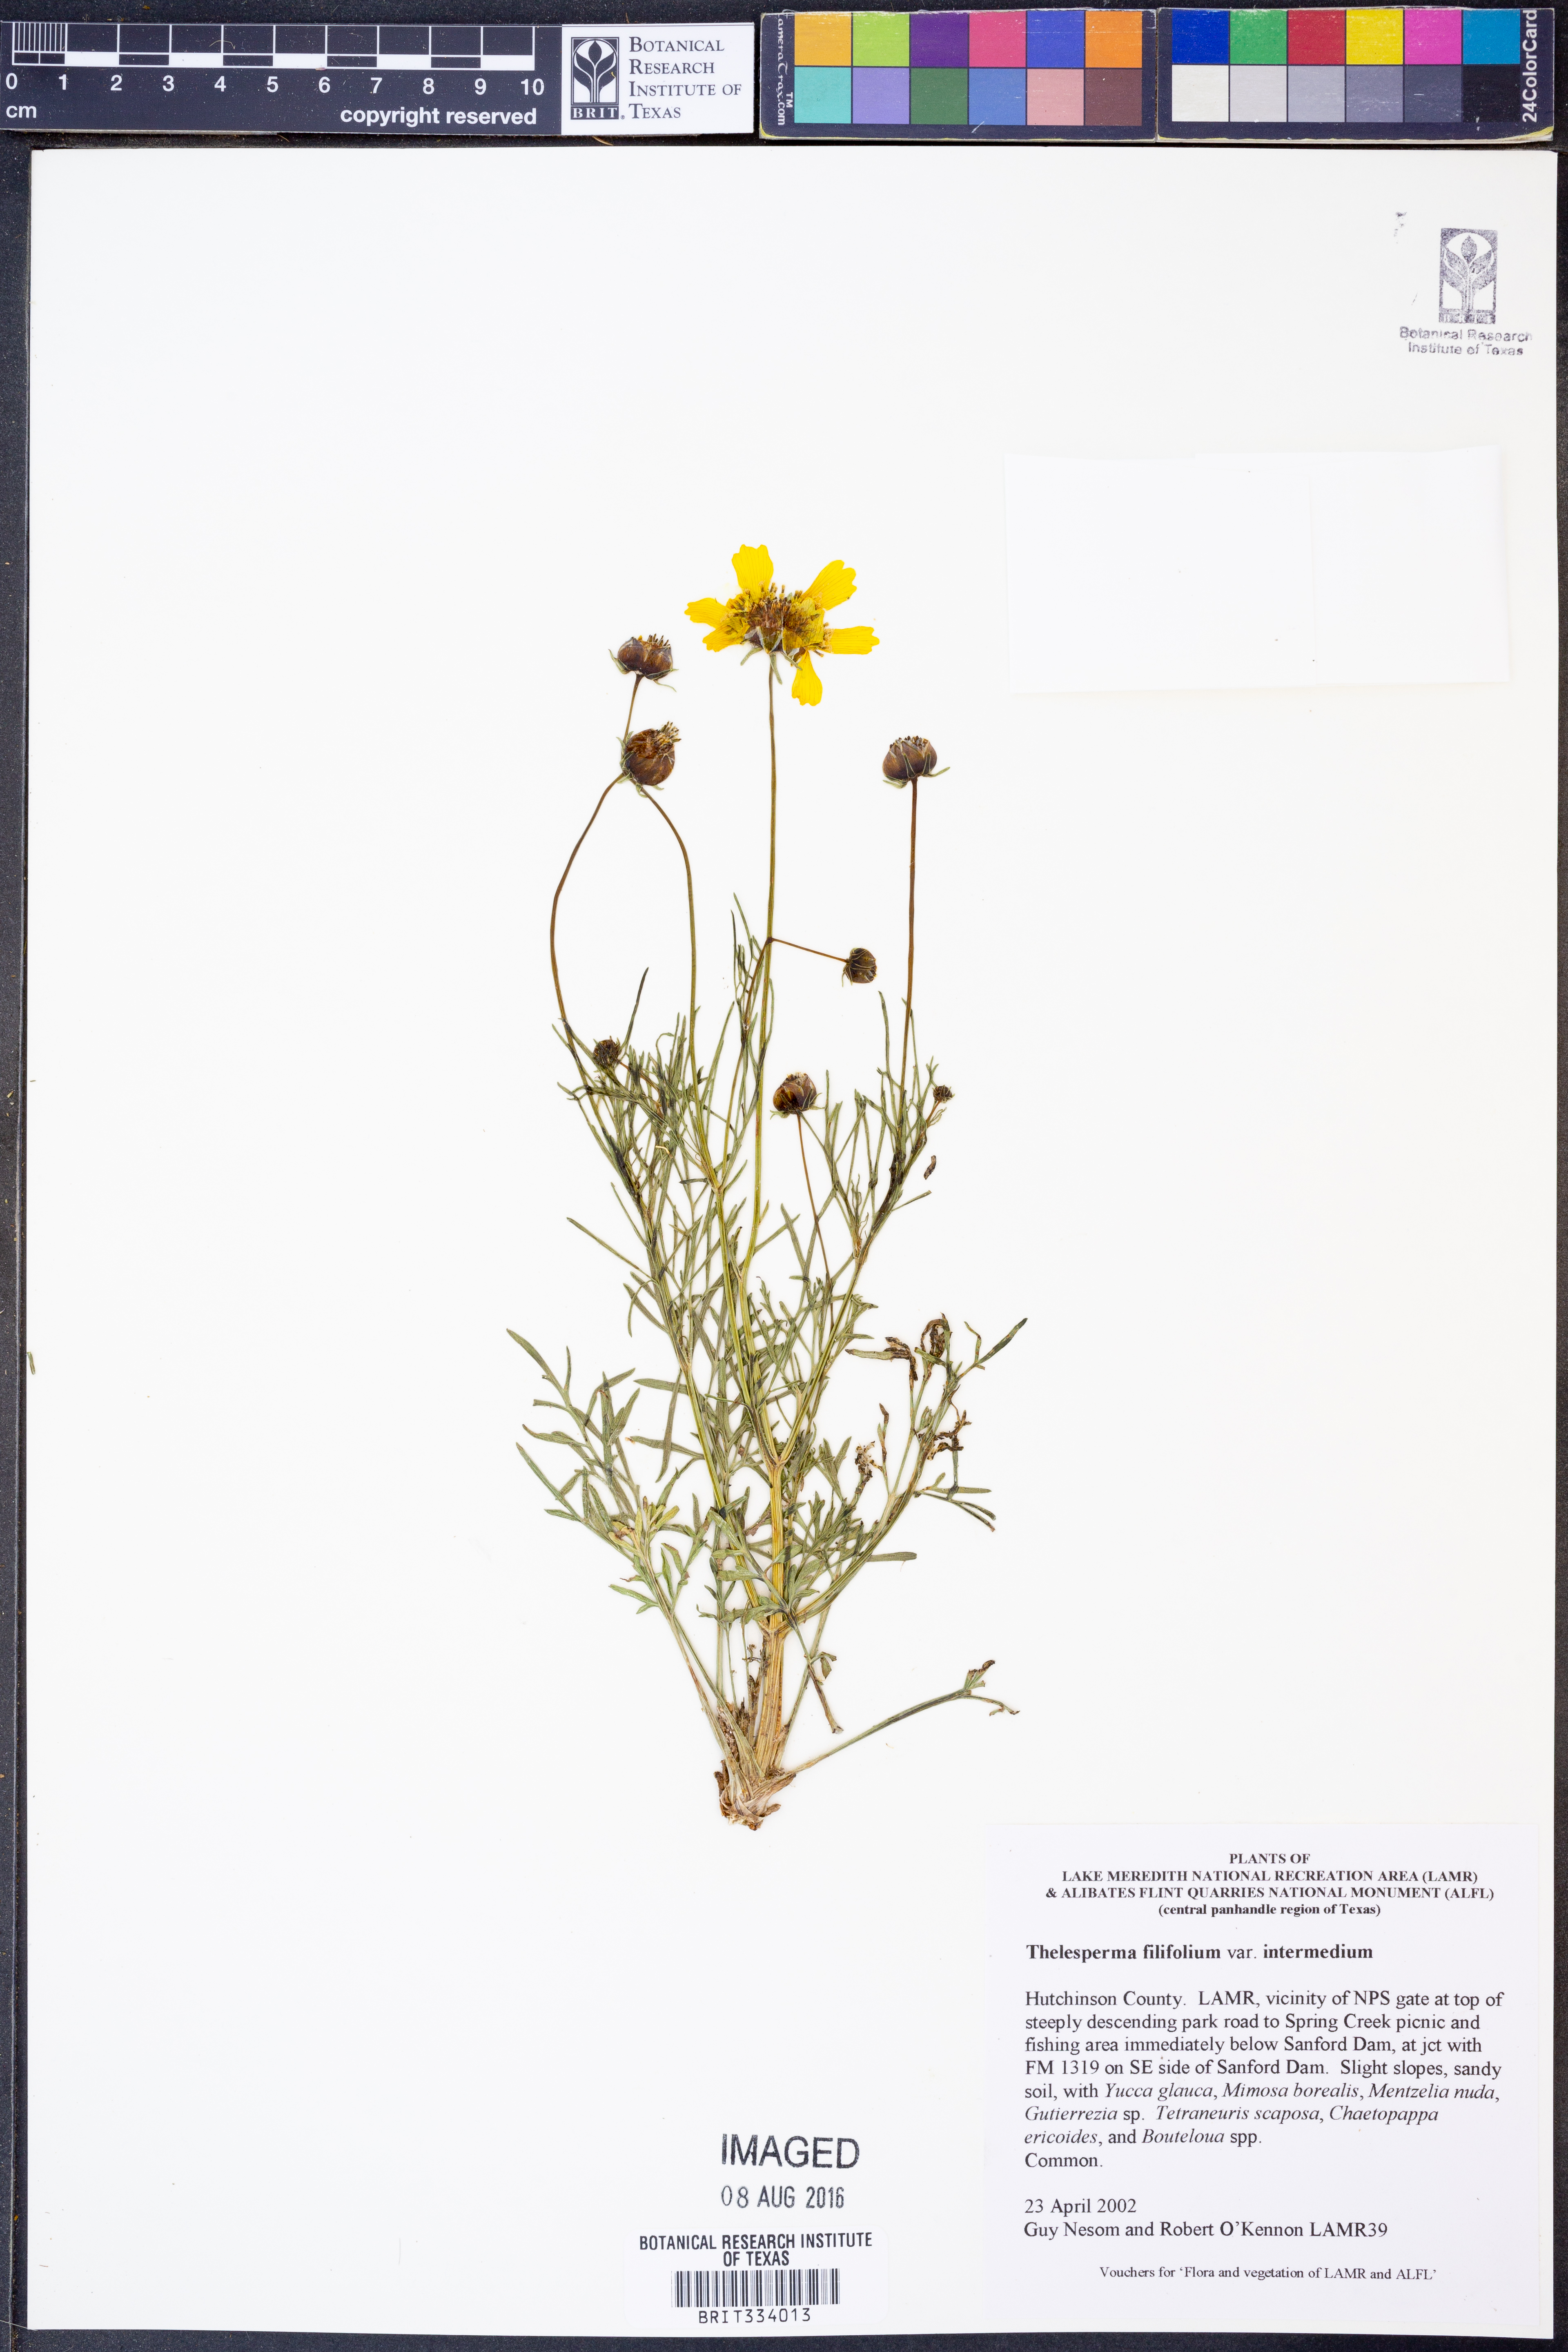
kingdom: Plantae
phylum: Tracheophyta
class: Magnoliopsida
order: Asterales
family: Asteraceae
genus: Thelesperma
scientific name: Thelesperma filifolium
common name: Stiff greenthread
